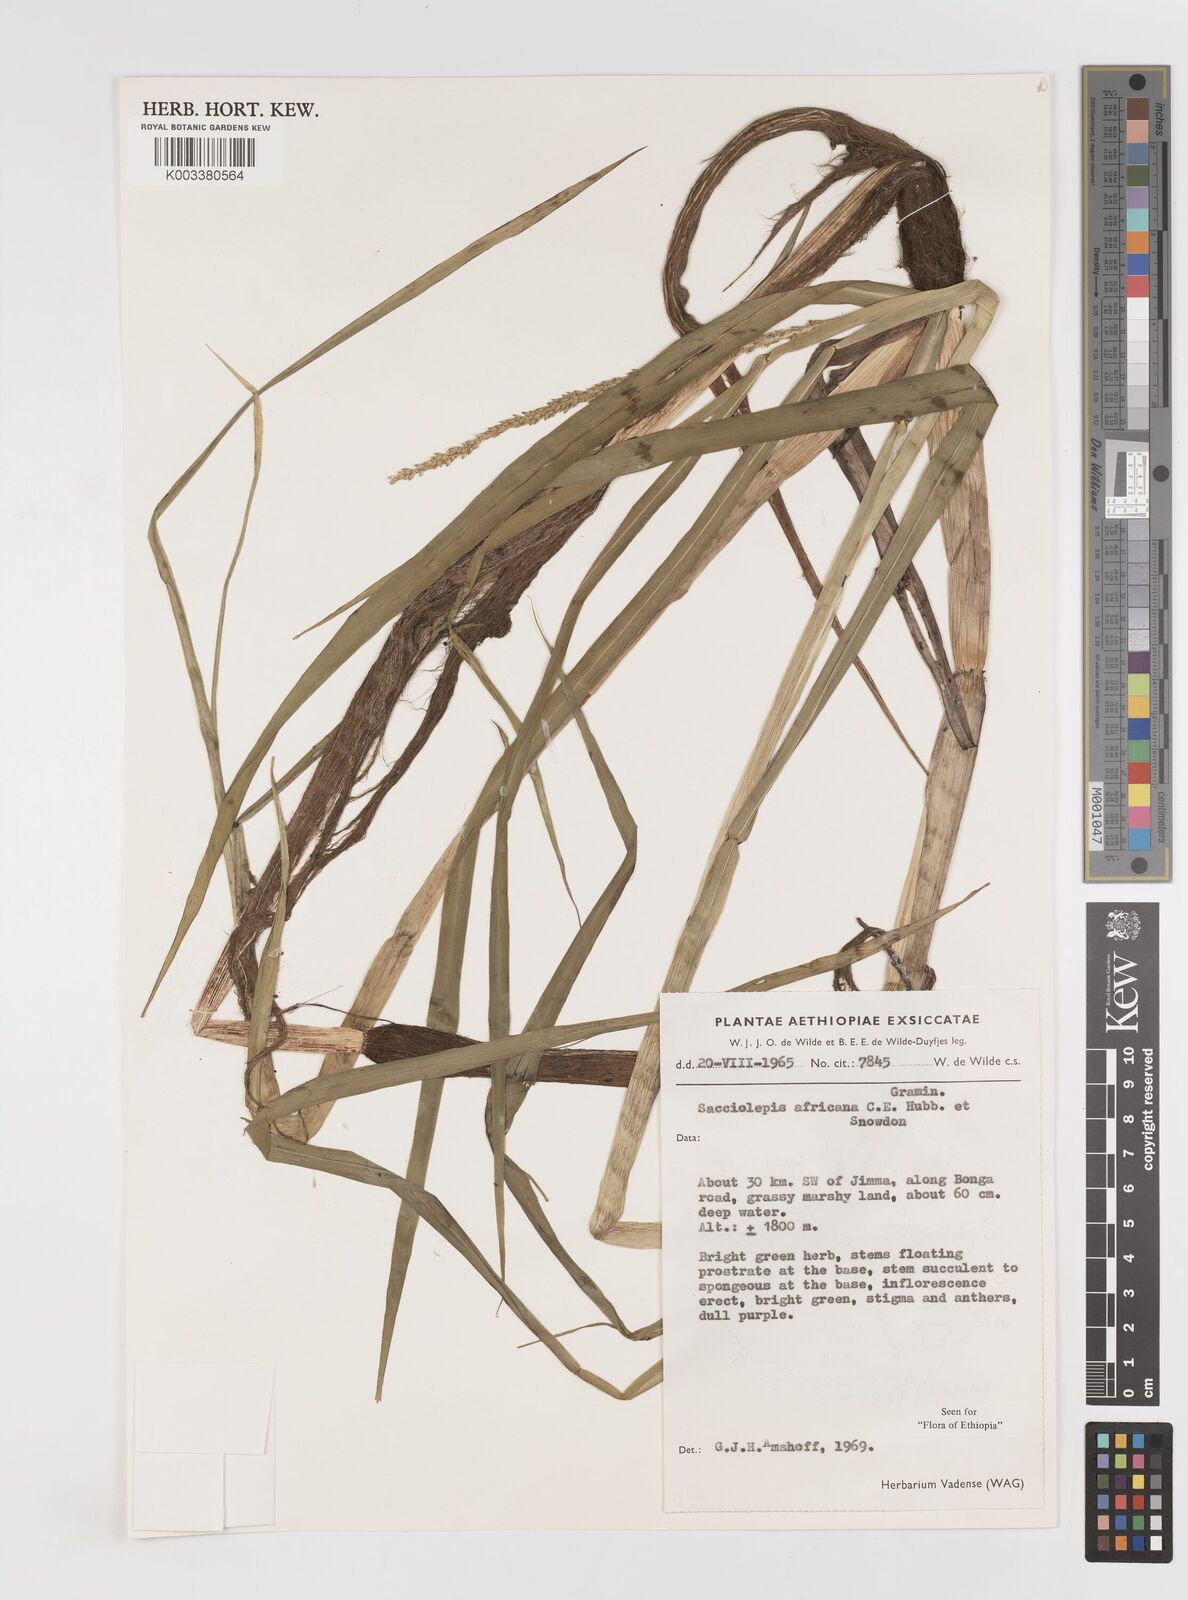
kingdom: Plantae
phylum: Tracheophyta
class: Liliopsida
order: Poales
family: Poaceae
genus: Sacciolepis
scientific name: Sacciolepis africana
